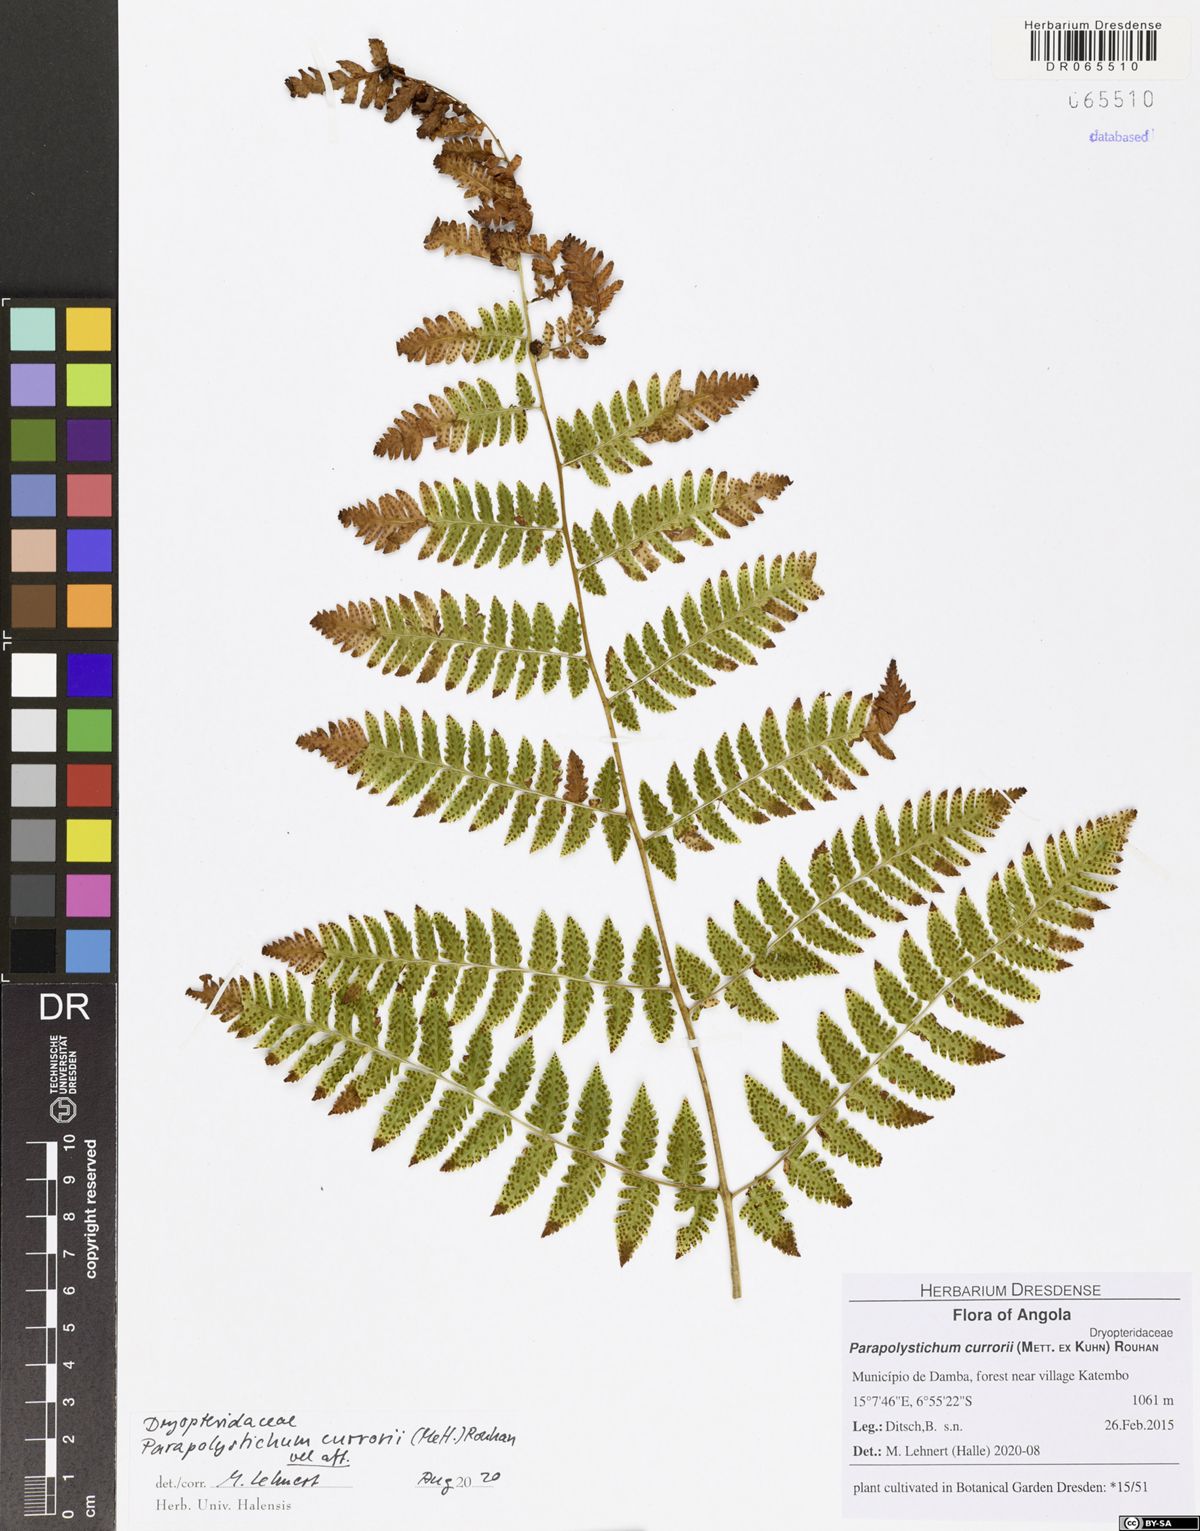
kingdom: Plantae
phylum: Tracheophyta
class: Polypodiopsida
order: Polypodiales
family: Dryopteridaceae
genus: Parapolystichum
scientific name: Parapolystichum currorii
